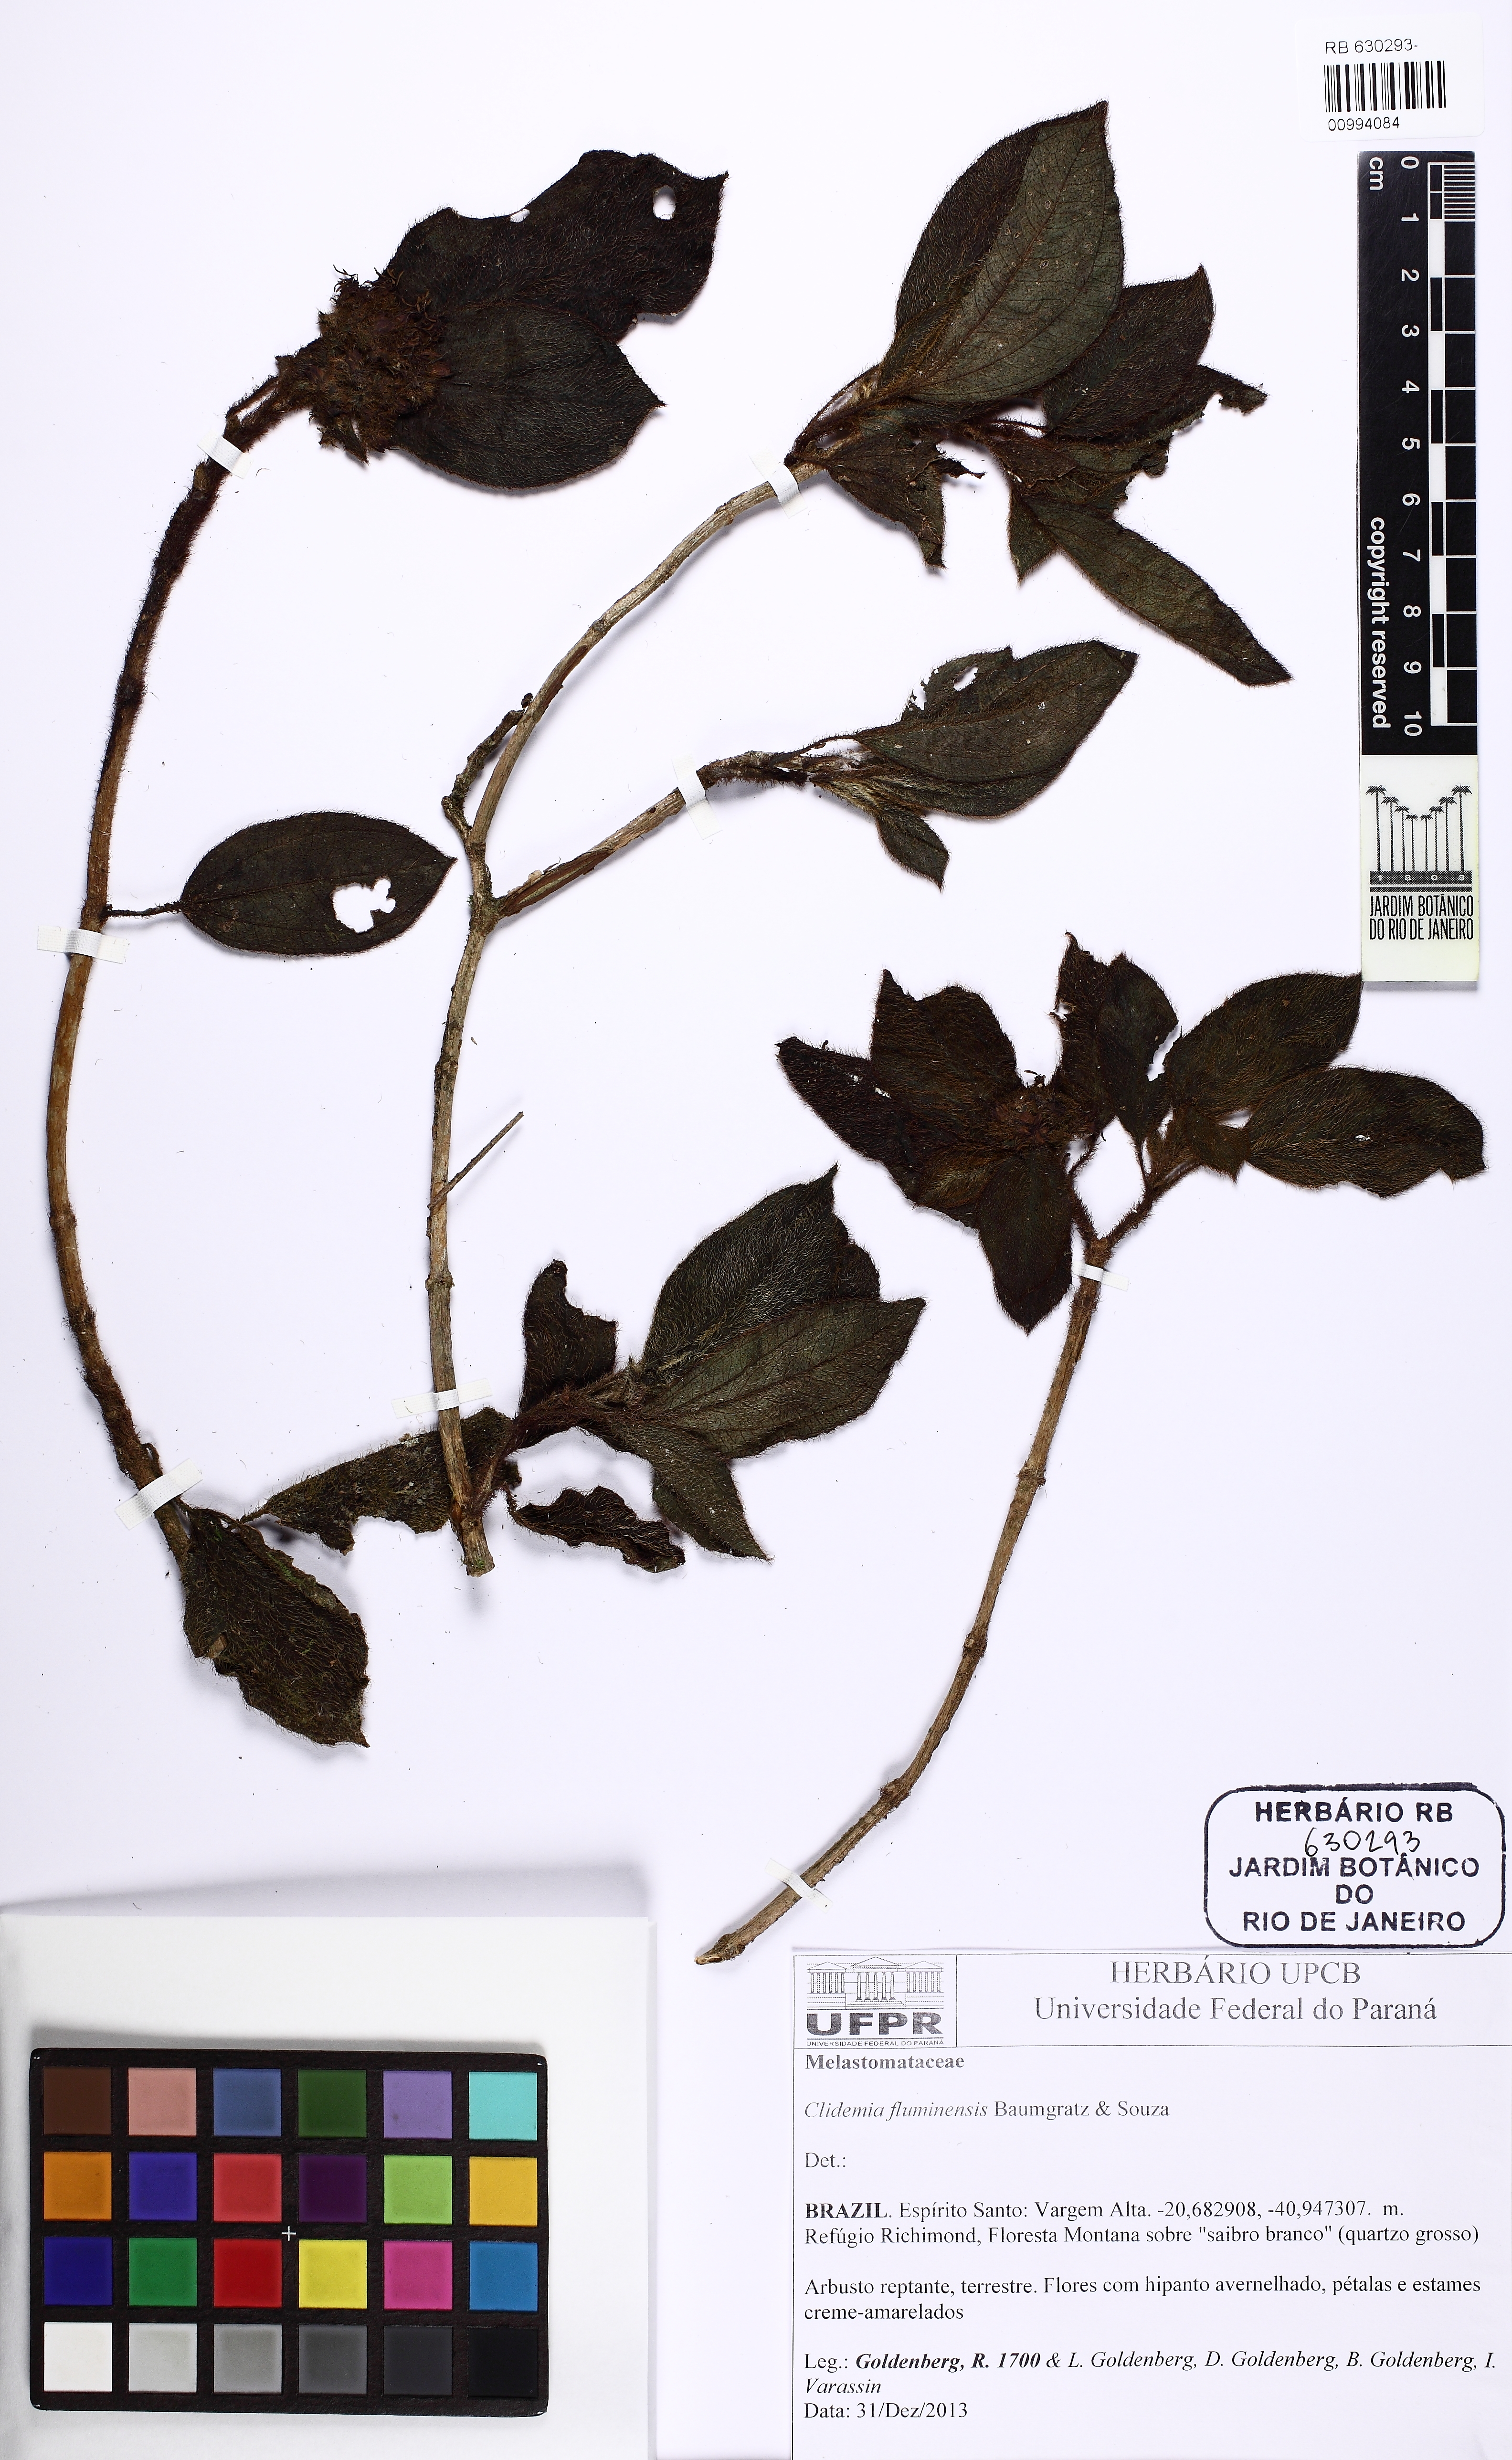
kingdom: Plantae
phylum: Tracheophyta
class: Magnoliopsida
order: Myrtales
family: Melastomataceae
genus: Miconia
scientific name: Miconia pleiofluminensis
